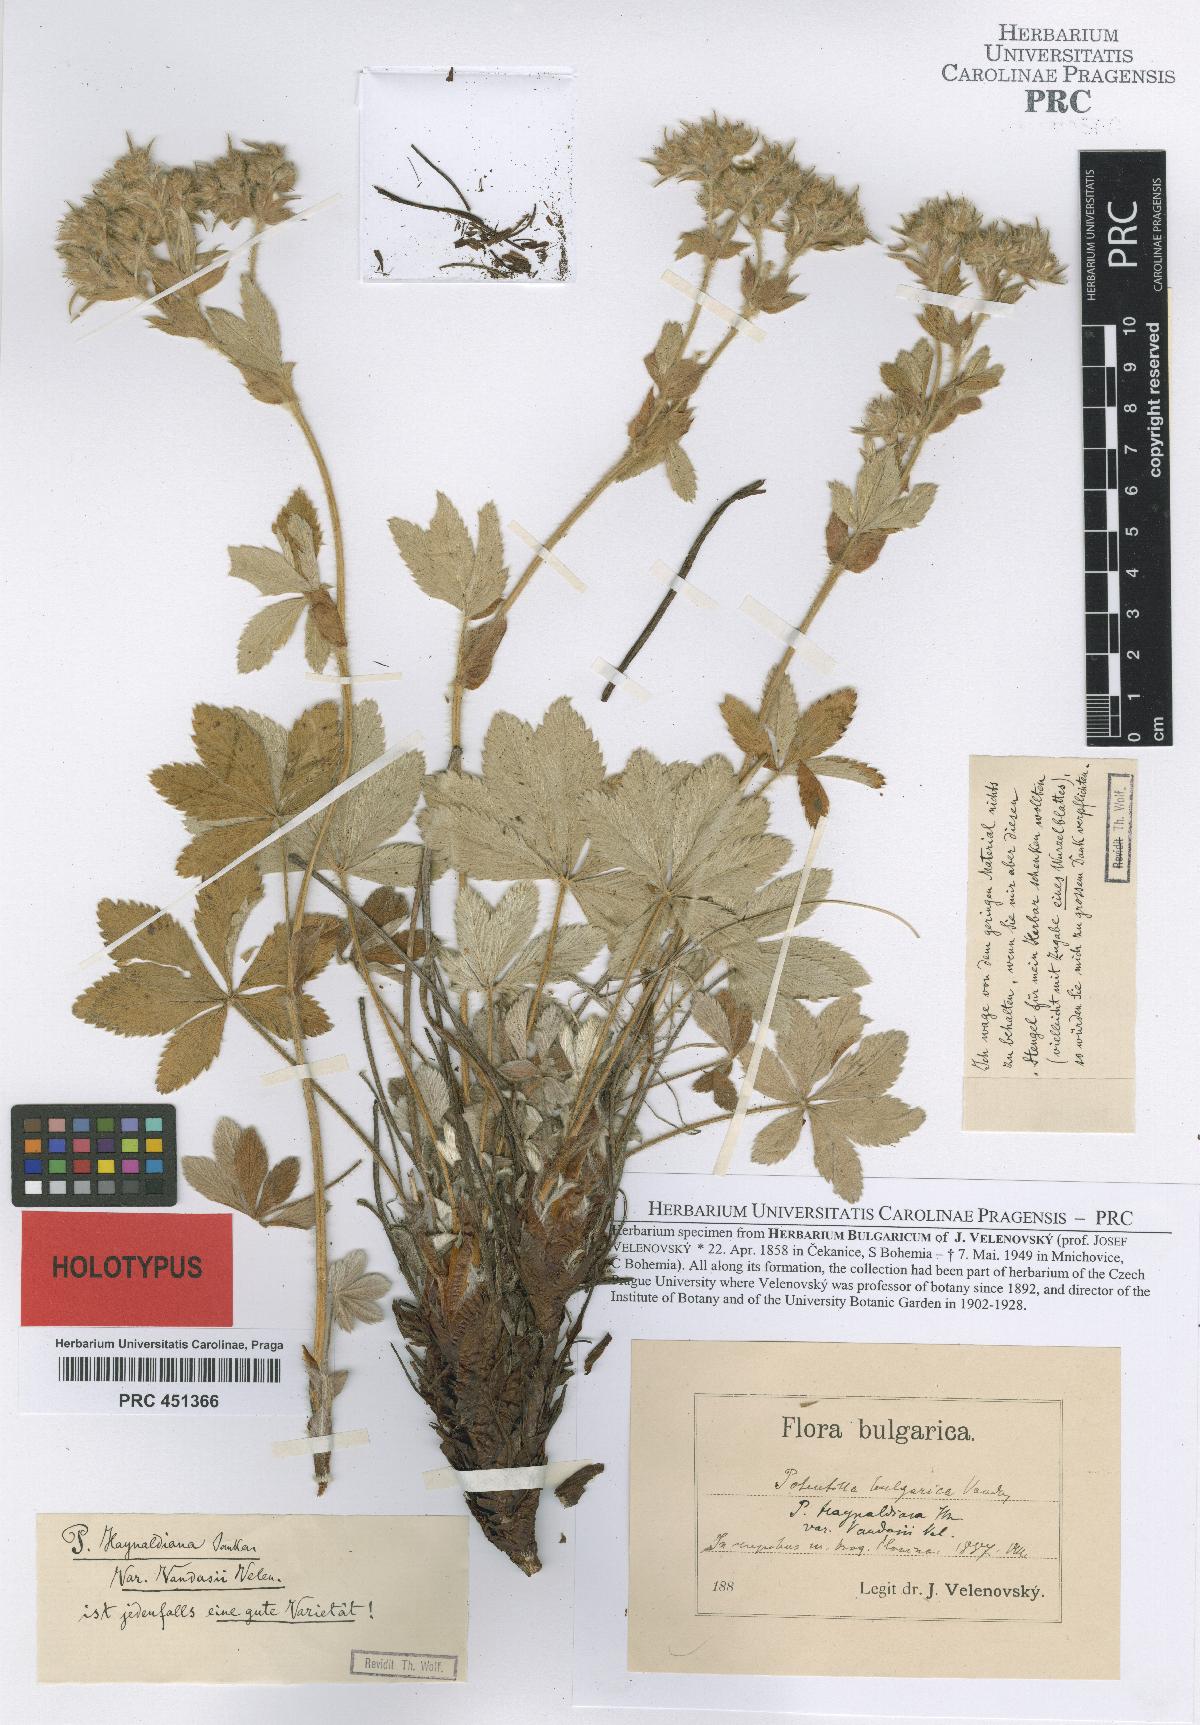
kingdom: Plantae
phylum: Tracheophyta
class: Magnoliopsida
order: Rosales
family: Rosaceae
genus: Potentilla
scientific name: Potentilla haynaldiana
